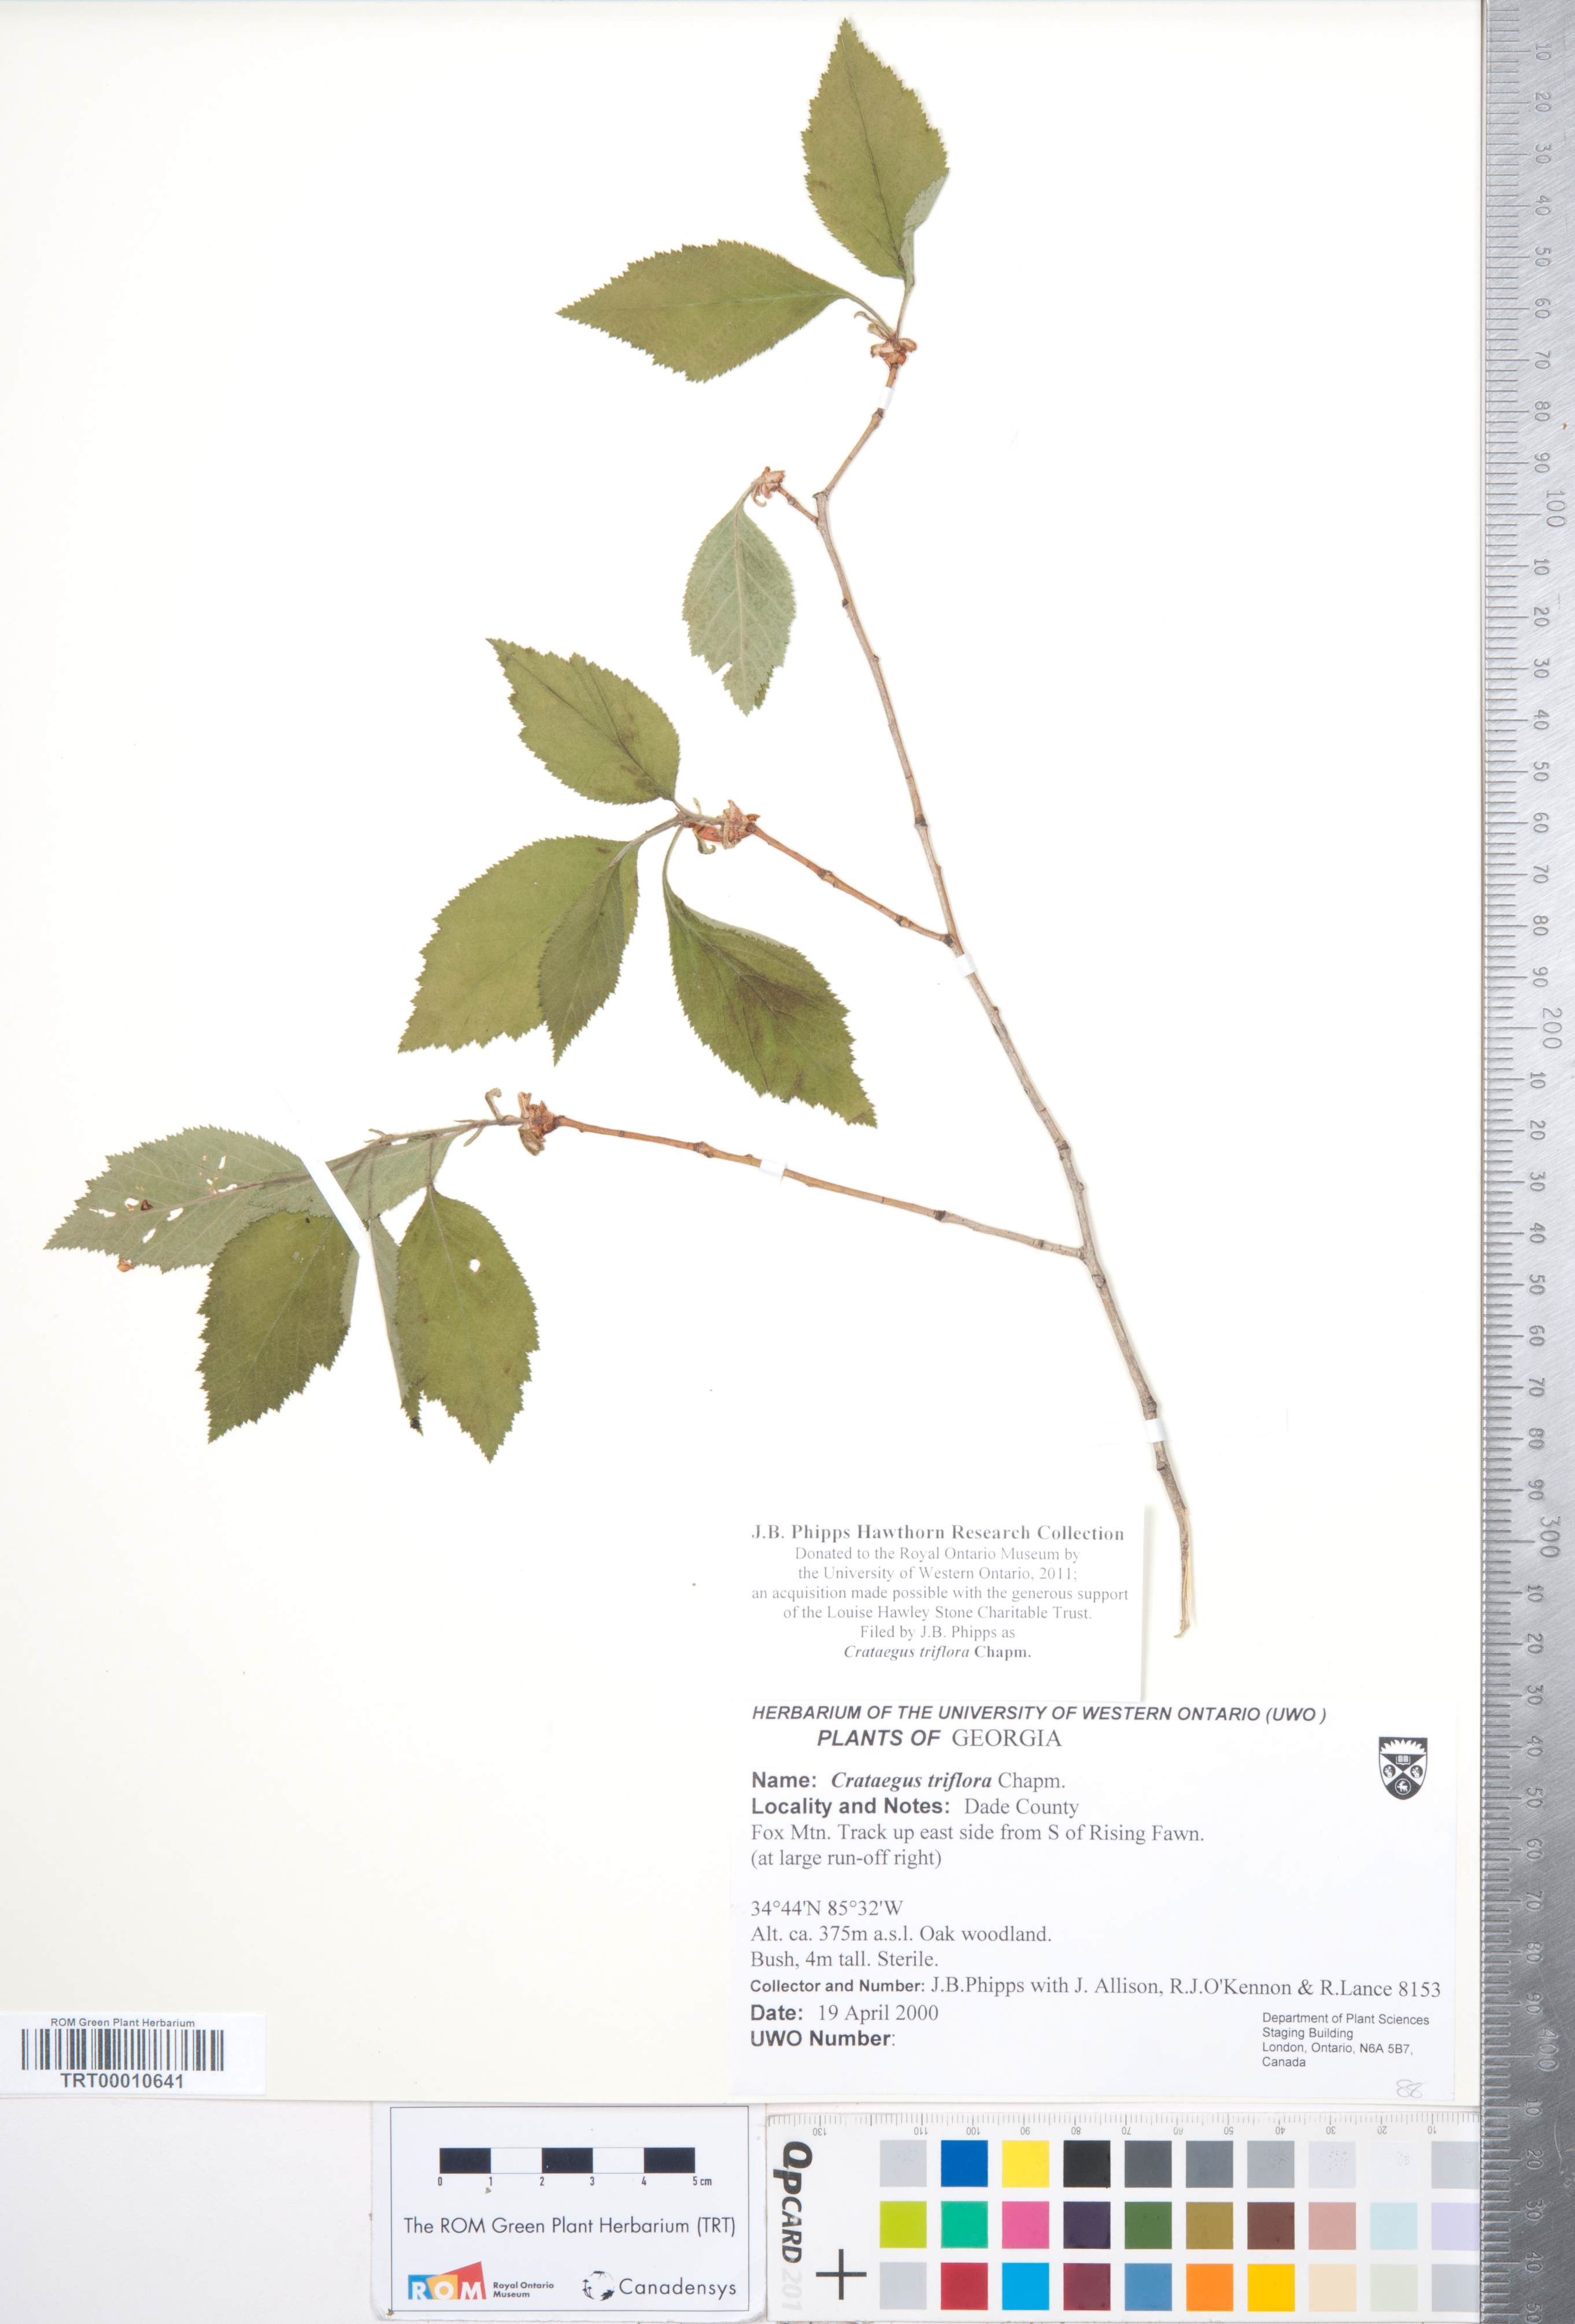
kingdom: Plantae
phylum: Tracheophyta
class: Magnoliopsida
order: Rosales
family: Rosaceae
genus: Crataegus
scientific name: Crataegus triflora
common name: Three-flower hawthorn
